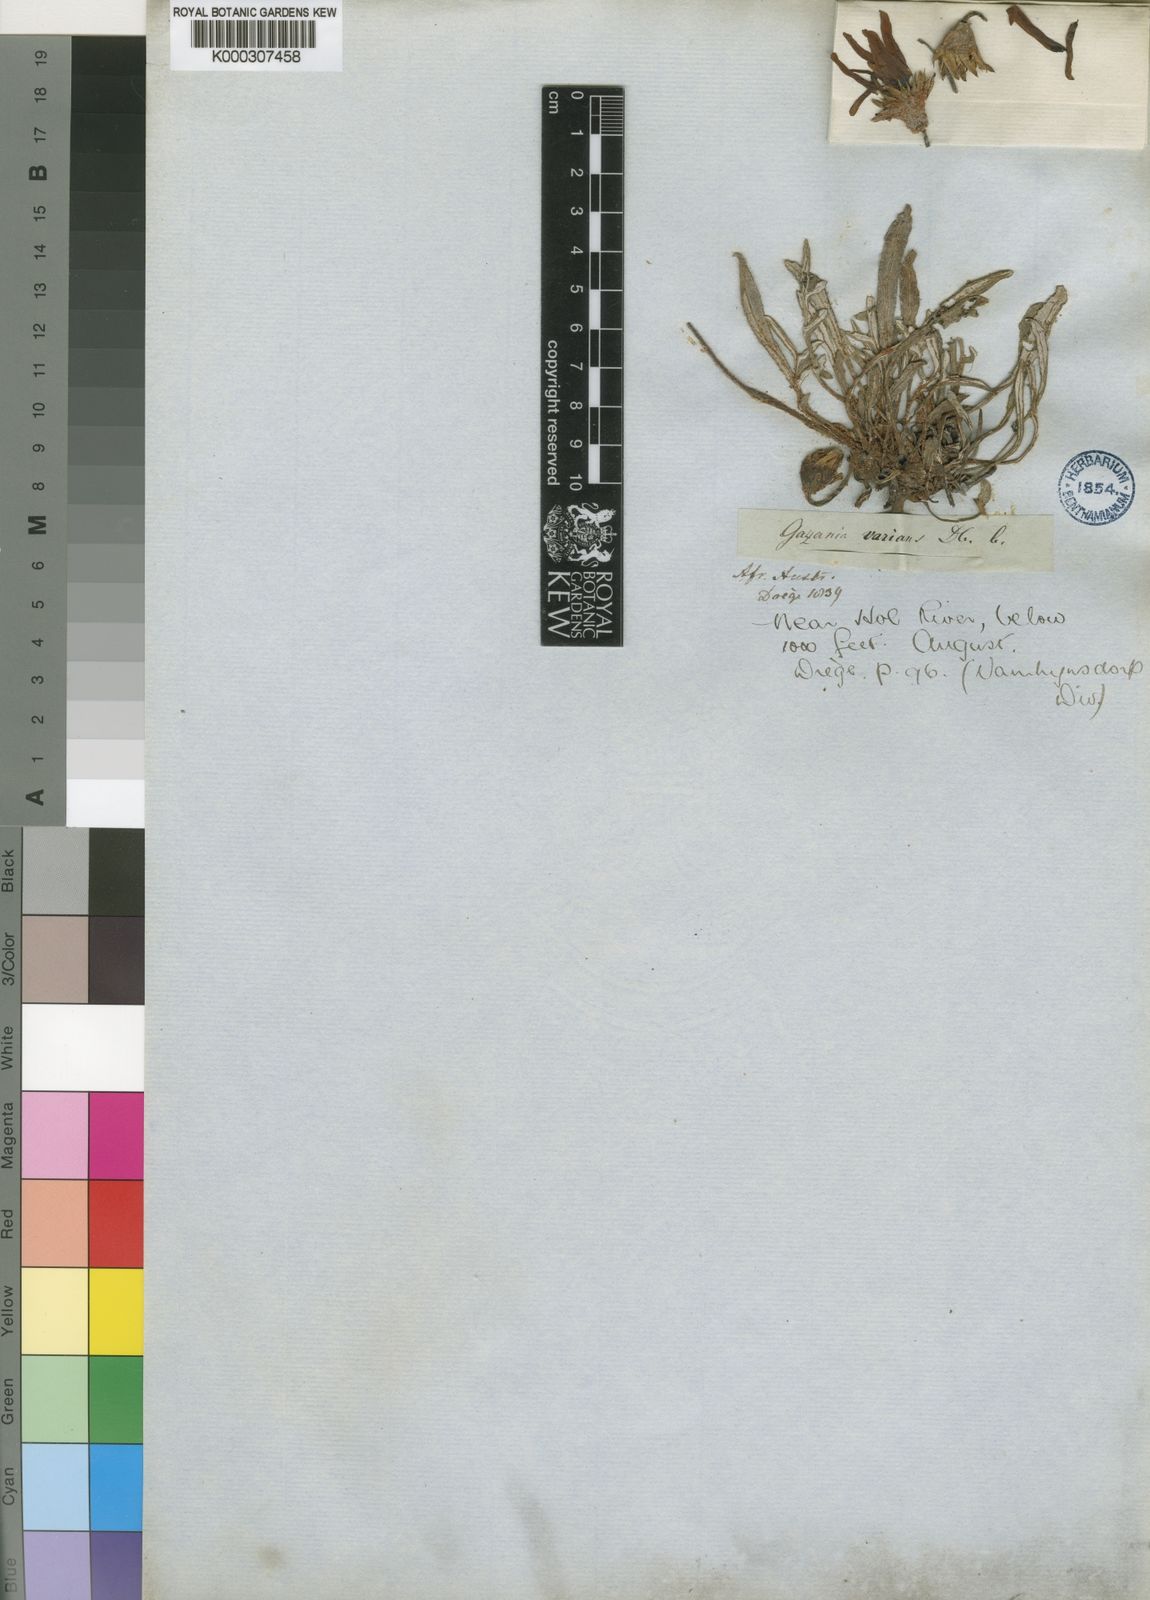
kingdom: Plantae
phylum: Tracheophyta
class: Magnoliopsida
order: Asterales
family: Asteraceae
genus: Gazania
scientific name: Gazania krebsiana
